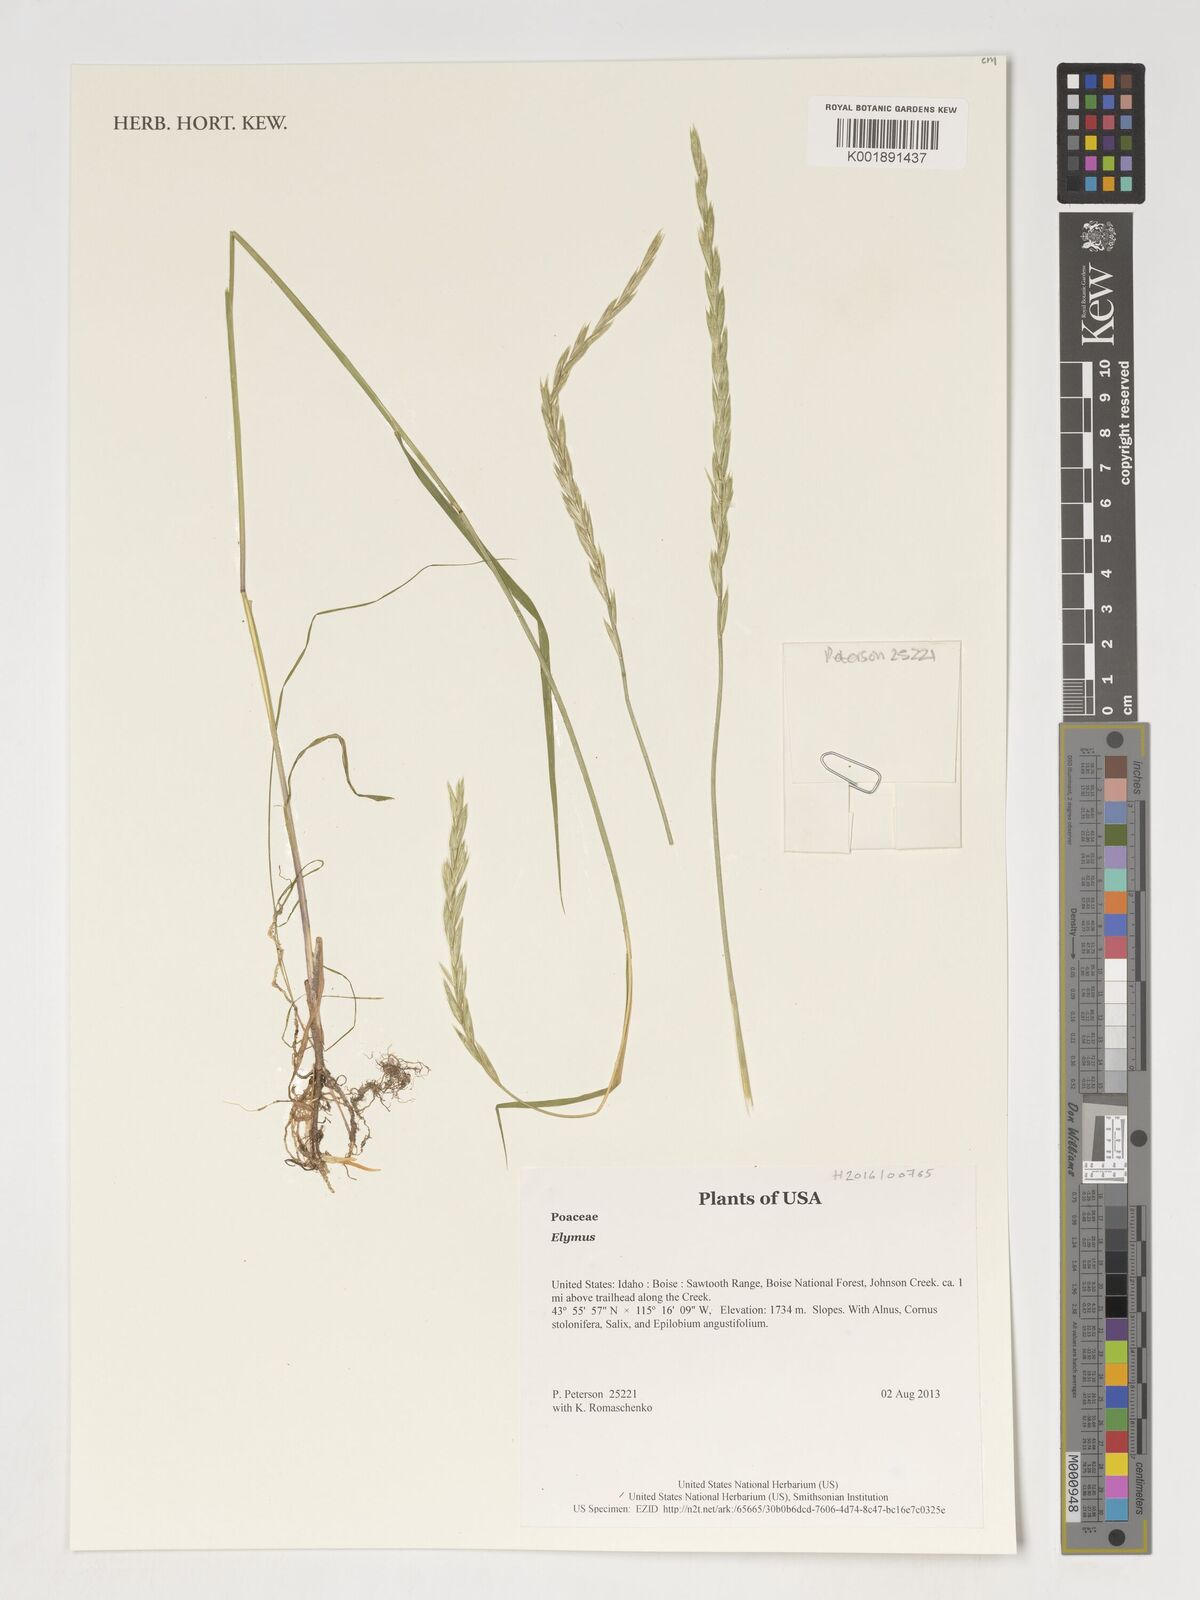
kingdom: Plantae
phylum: Tracheophyta
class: Liliopsida
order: Poales
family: Poaceae
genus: Elymus
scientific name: Elymus
